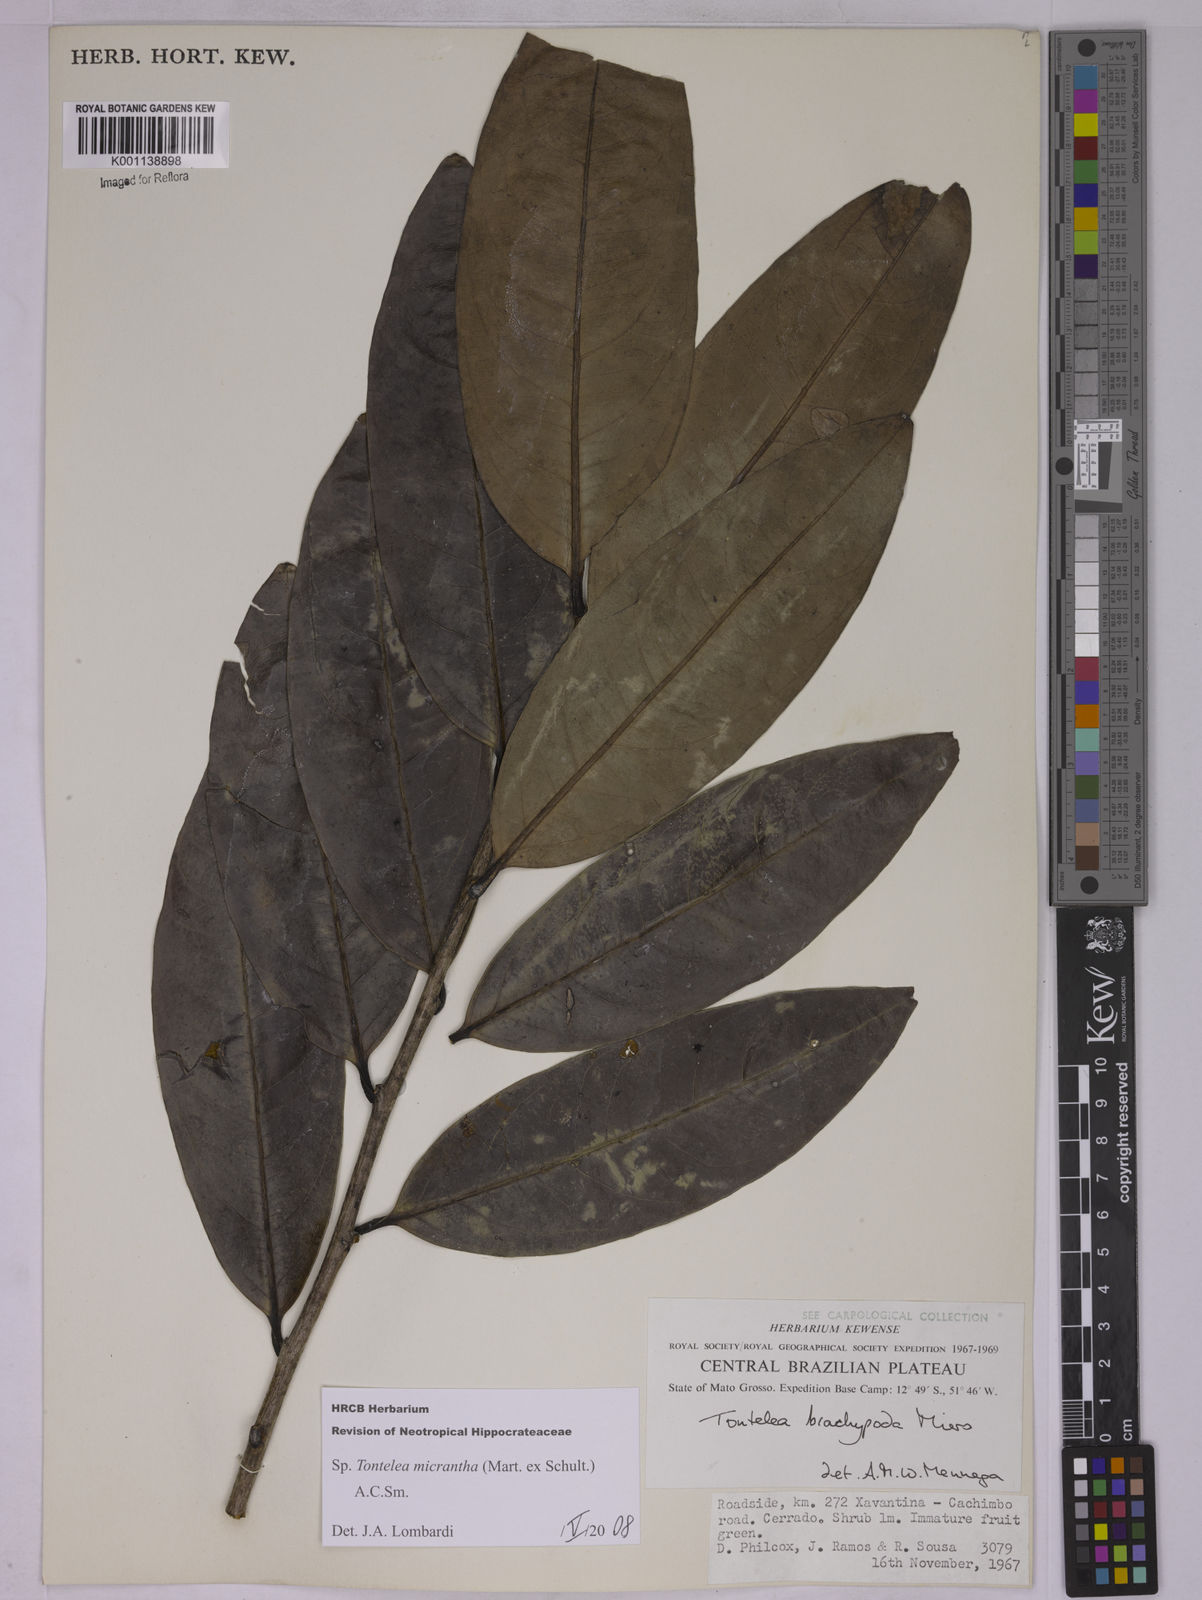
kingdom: Plantae
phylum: Tracheophyta
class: Magnoliopsida
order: Celastrales
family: Celastraceae
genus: Tontelea
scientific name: Tontelea micrantha
